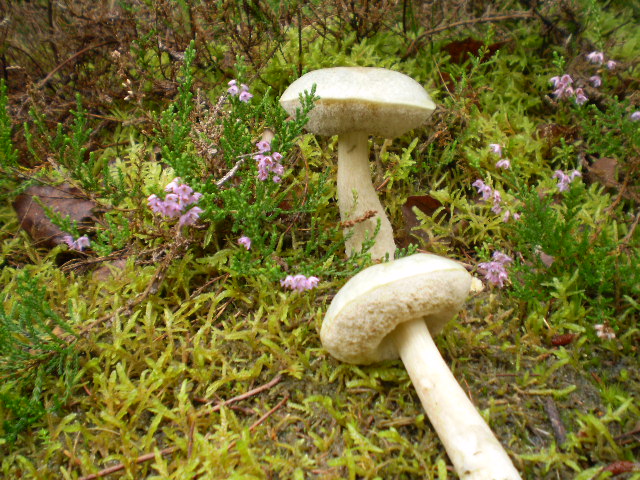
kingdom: Fungi
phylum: Basidiomycota
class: Agaricomycetes
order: Boletales
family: Boletaceae
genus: Leccinum
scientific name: Leccinum scabrum
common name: hvid skælrørhat
